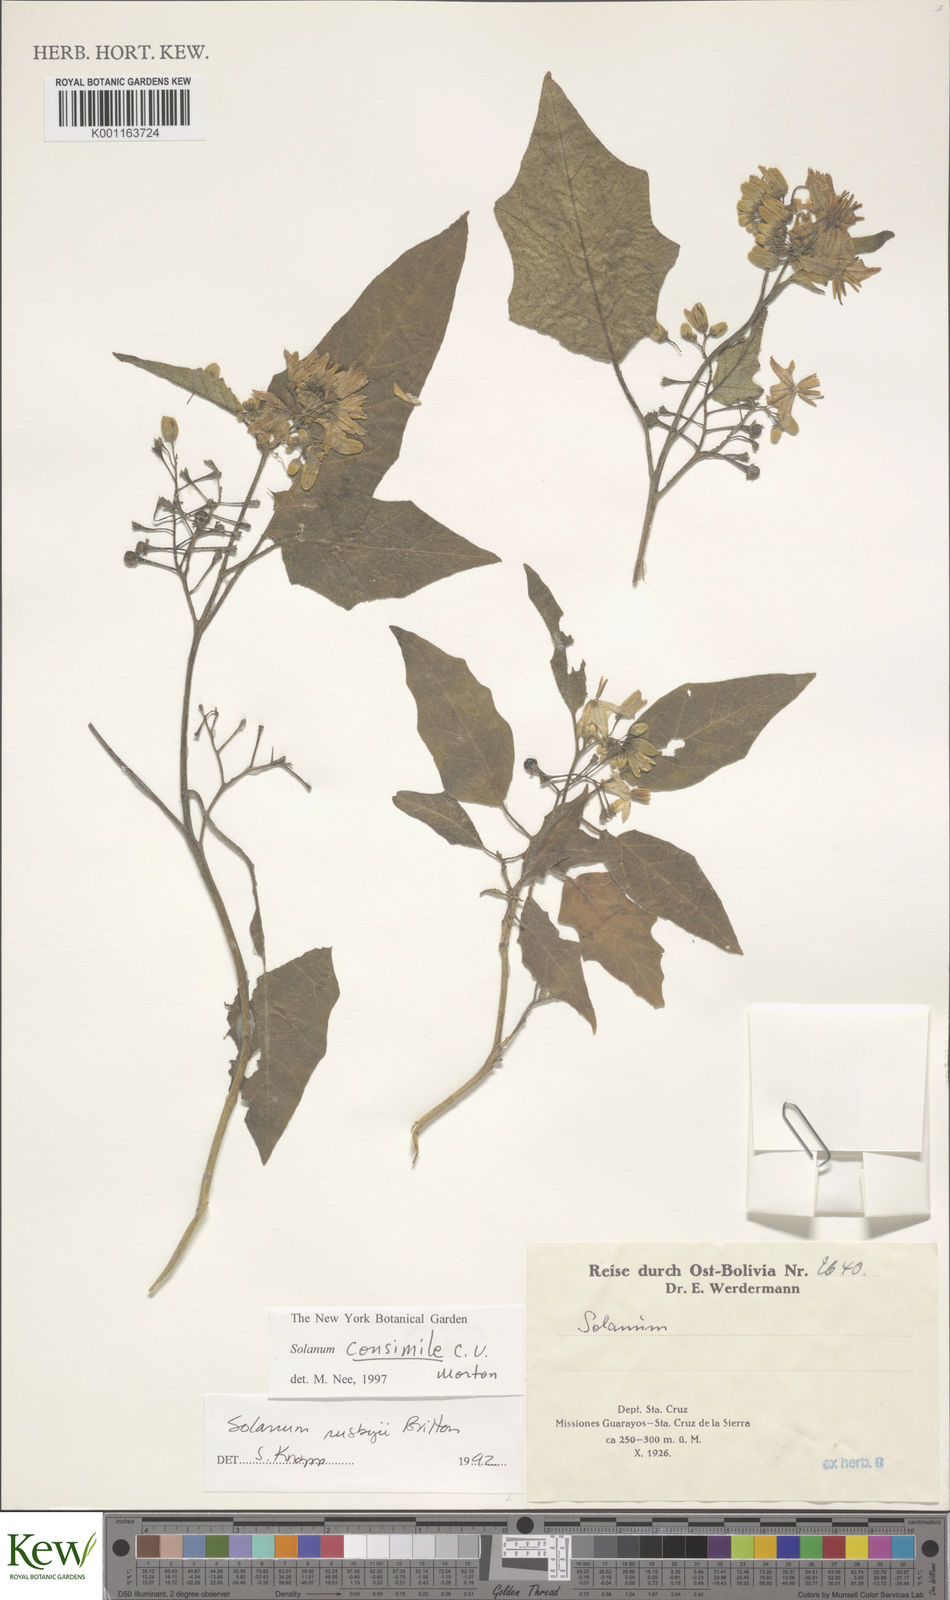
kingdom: Plantae
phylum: Tracheophyta
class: Magnoliopsida
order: Solanales
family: Solanaceae
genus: Solanum
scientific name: Solanum consimile
